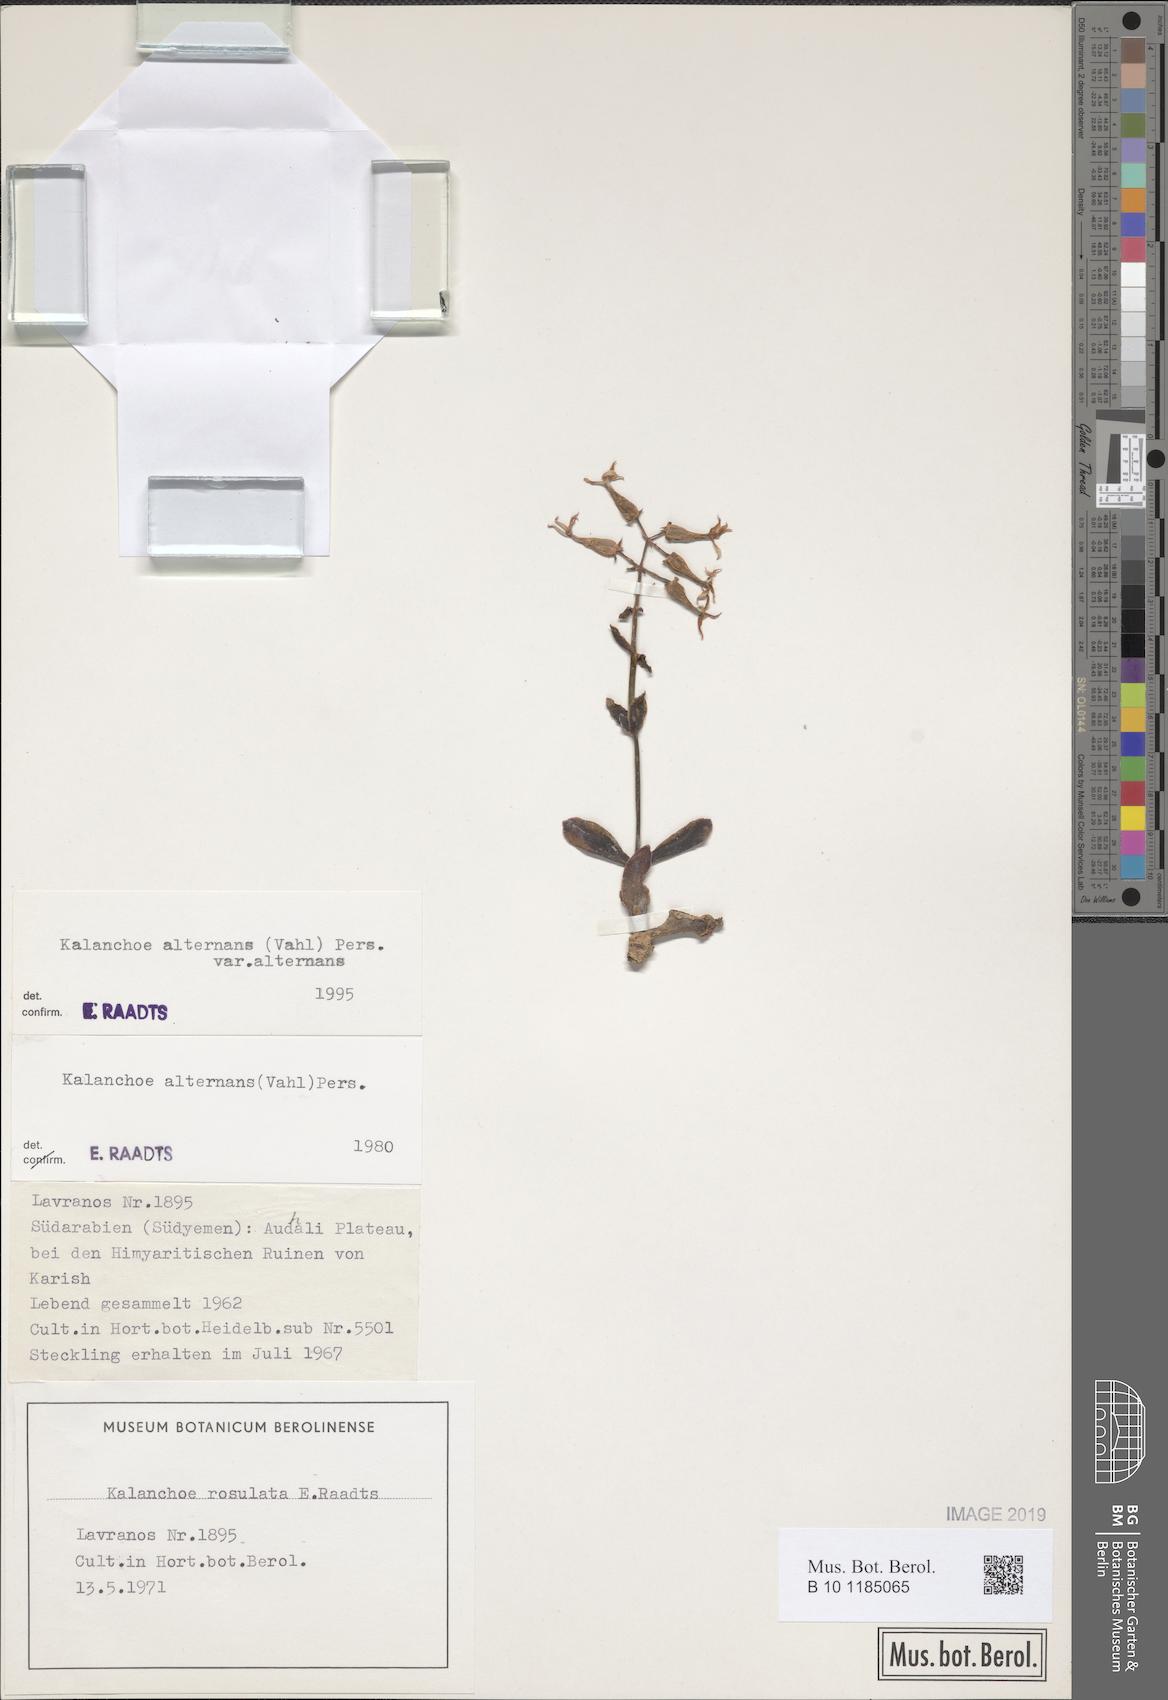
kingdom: Plantae
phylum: Tracheophyta
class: Magnoliopsida
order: Saxifragales
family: Crassulaceae
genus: Kalanchoe
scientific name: Kalanchoe alternans
